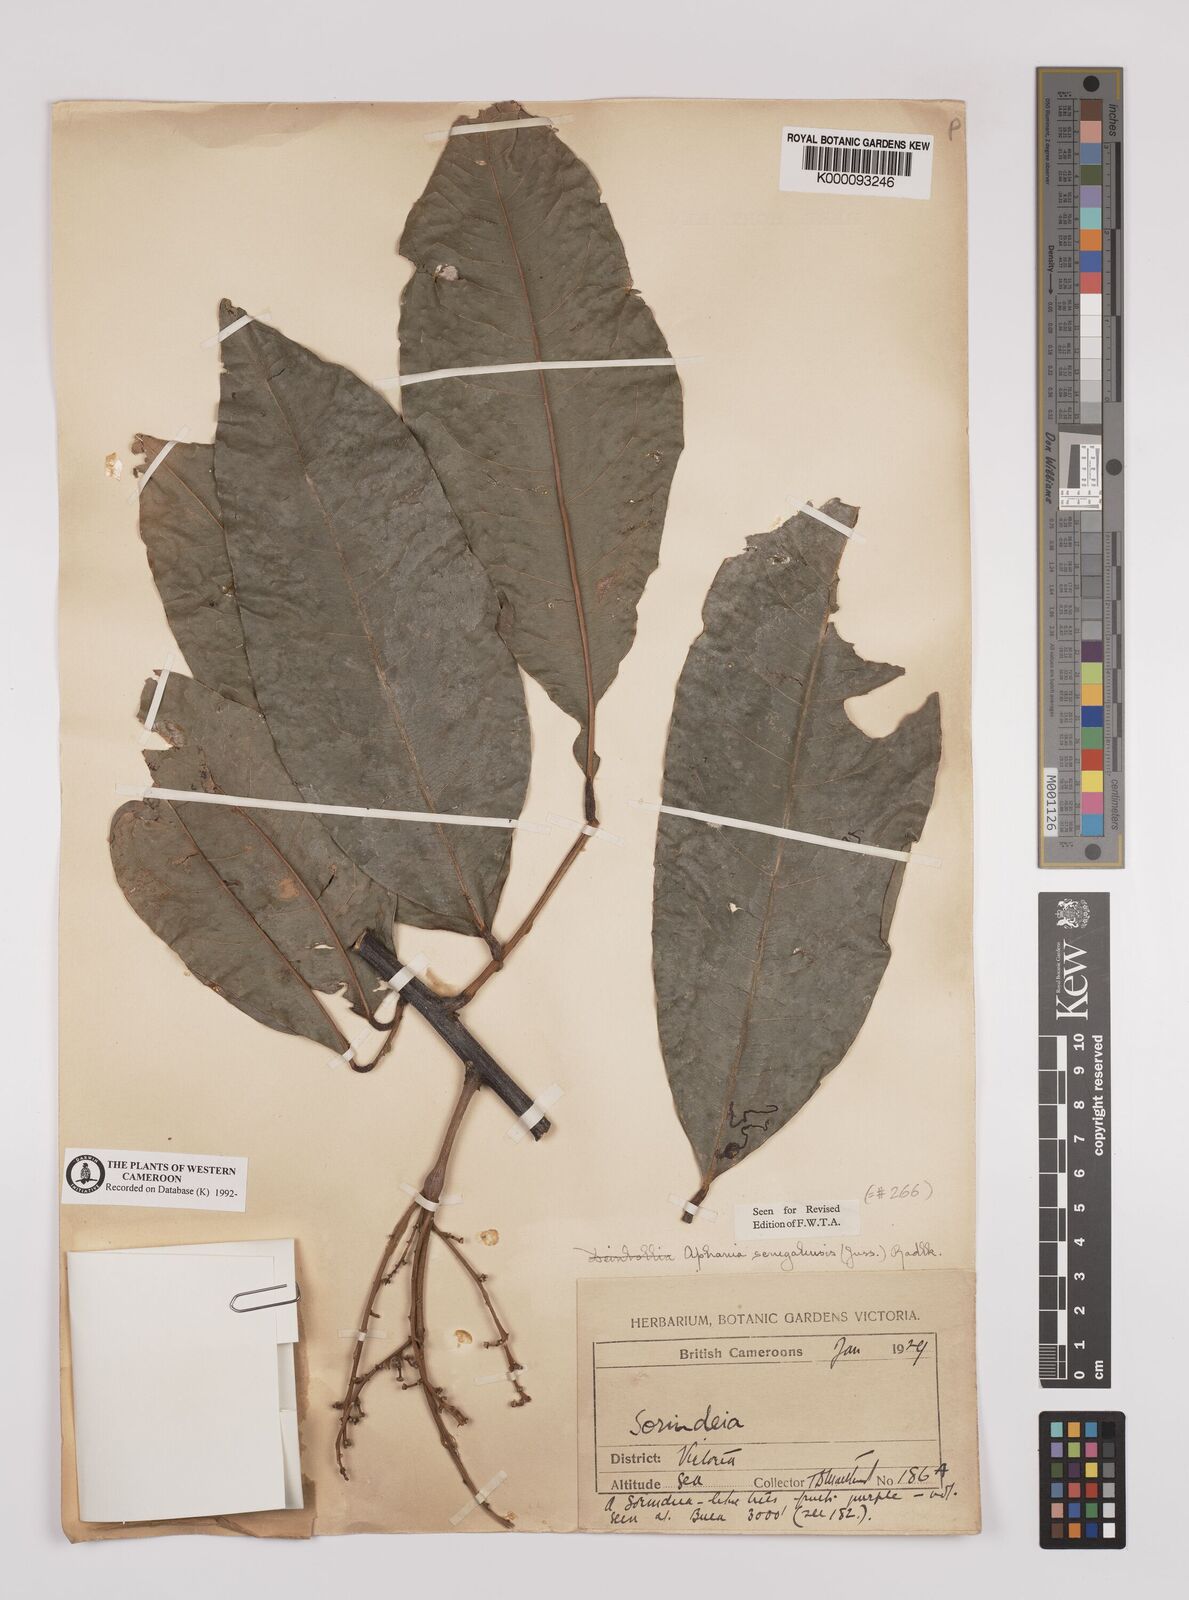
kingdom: Plantae
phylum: Tracheophyta
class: Magnoliopsida
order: Sapindales
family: Sapindaceae
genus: Lepisanthes
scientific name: Lepisanthes senegalensis
